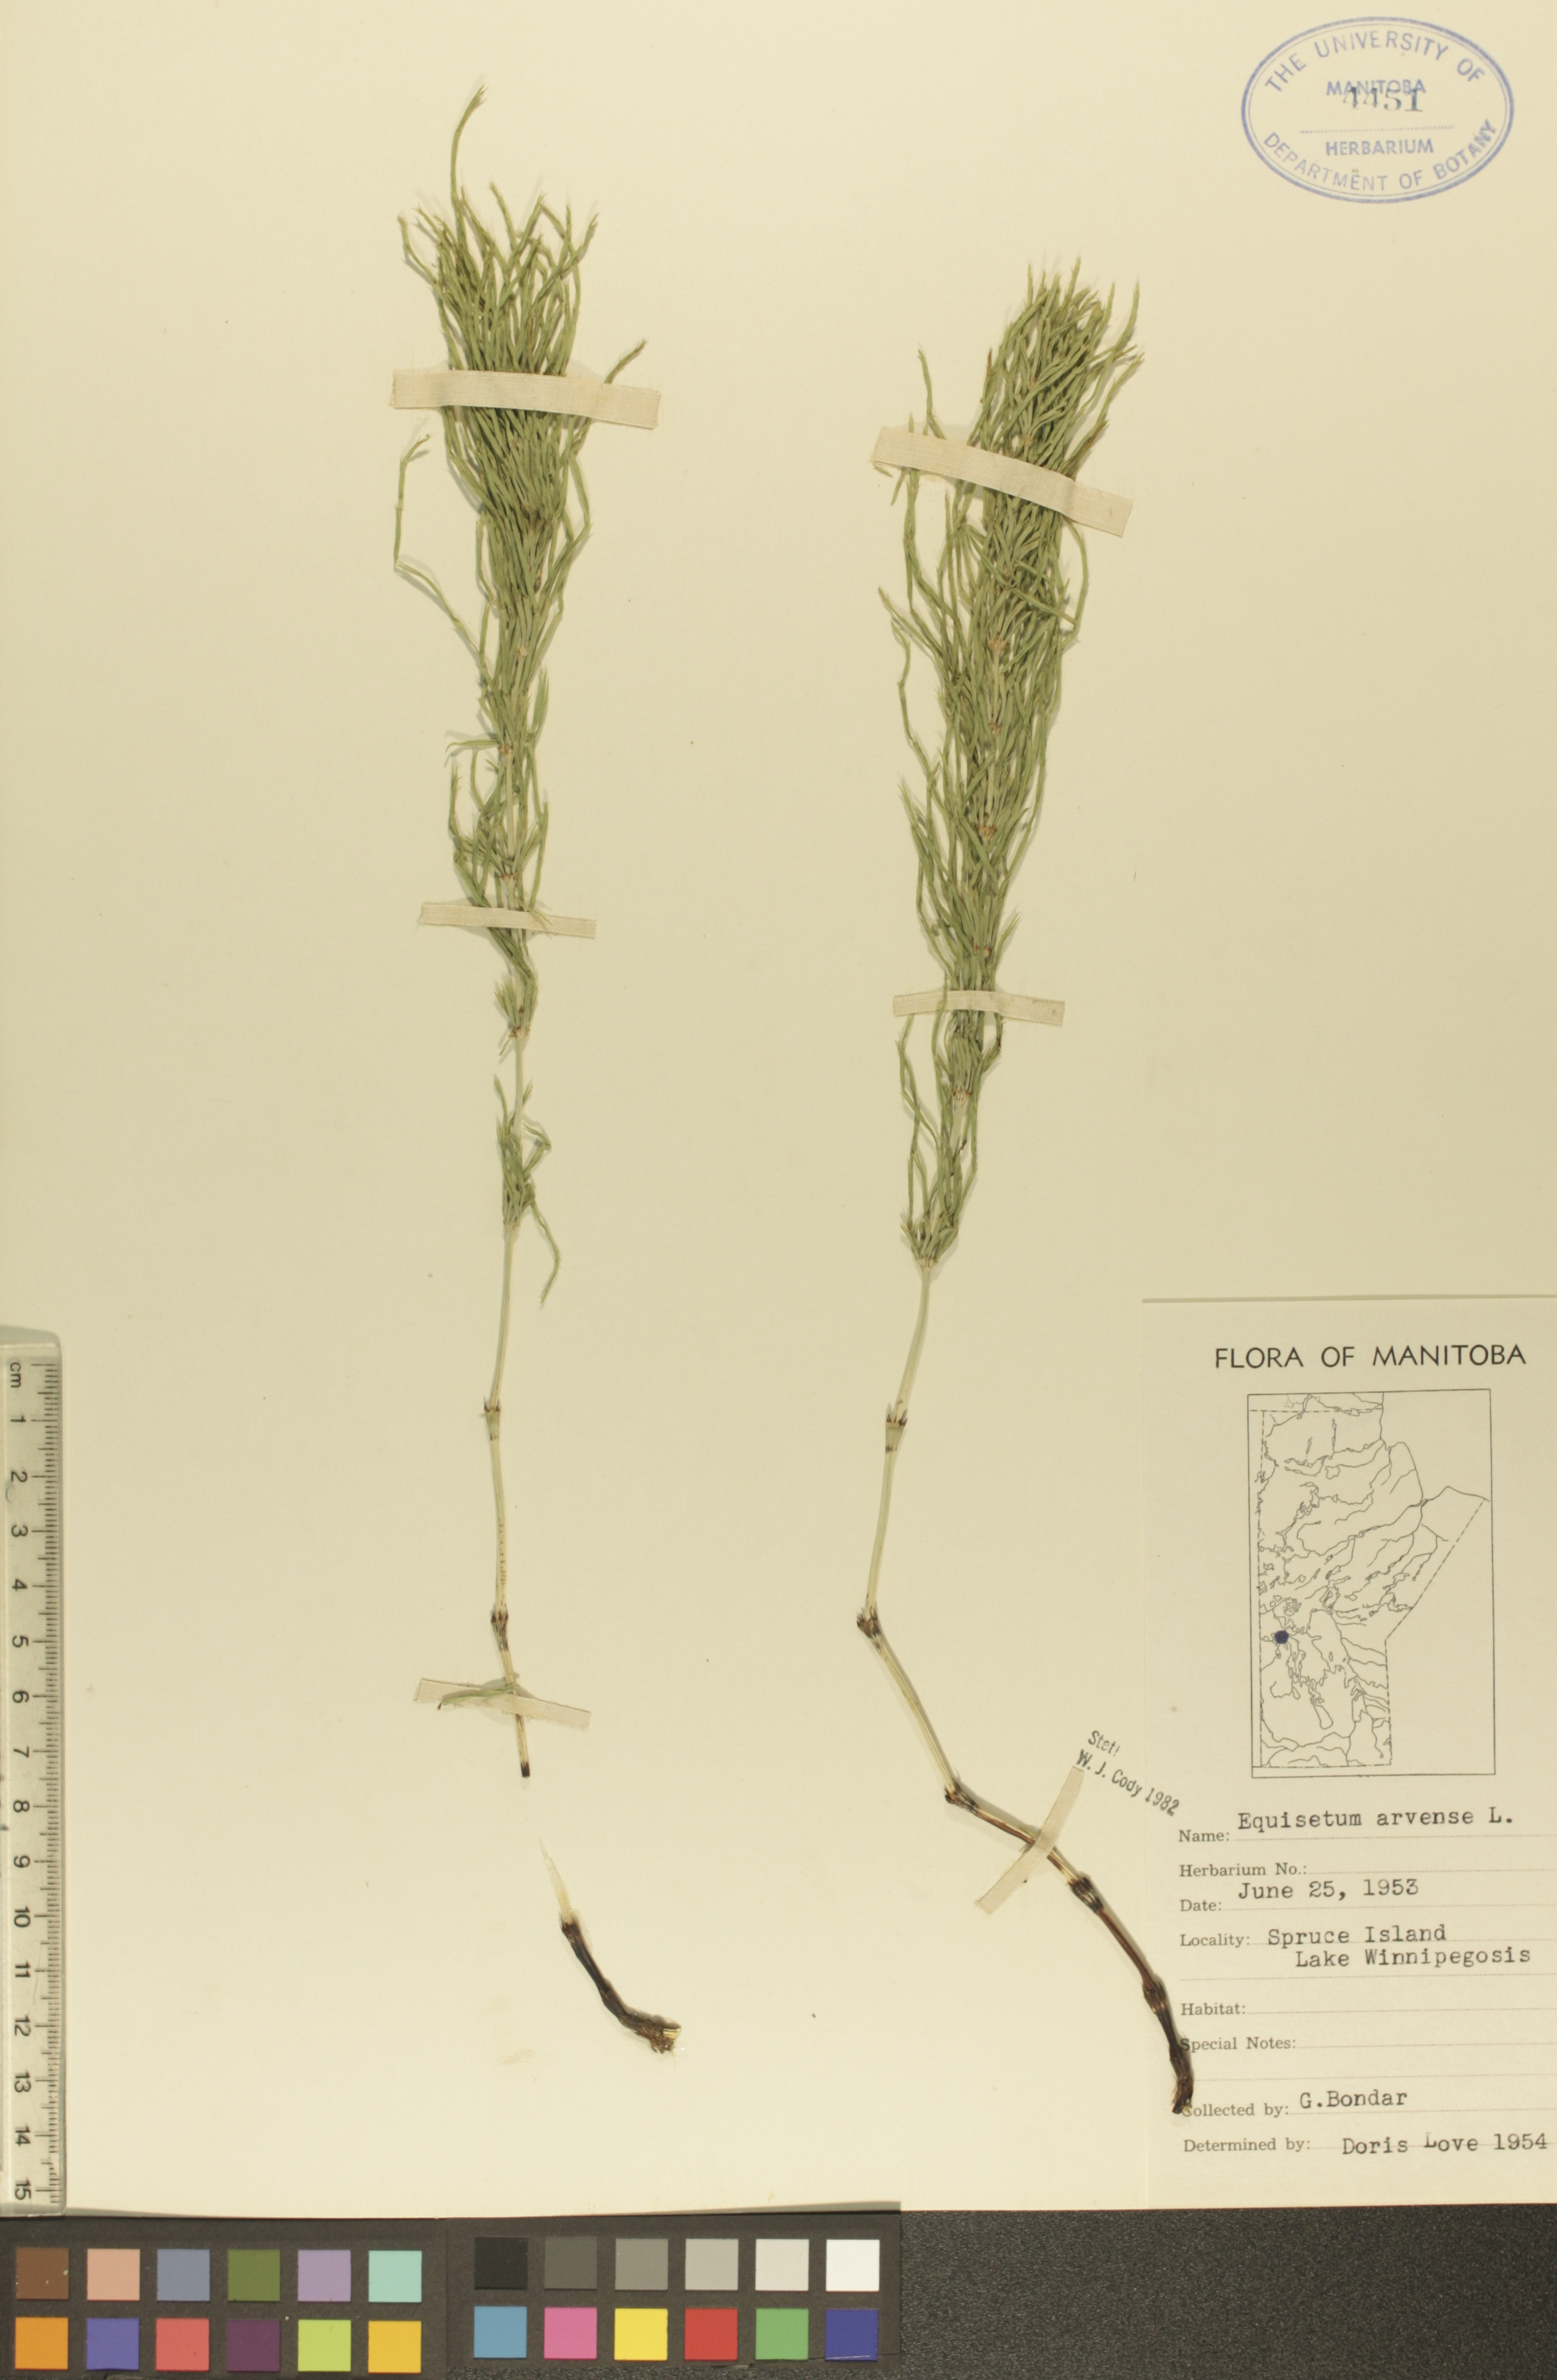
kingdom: Plantae
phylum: Tracheophyta
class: Polypodiopsida
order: Equisetales
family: Equisetaceae
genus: Equisetum
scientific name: Equisetum arvense
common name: Field horsetail
